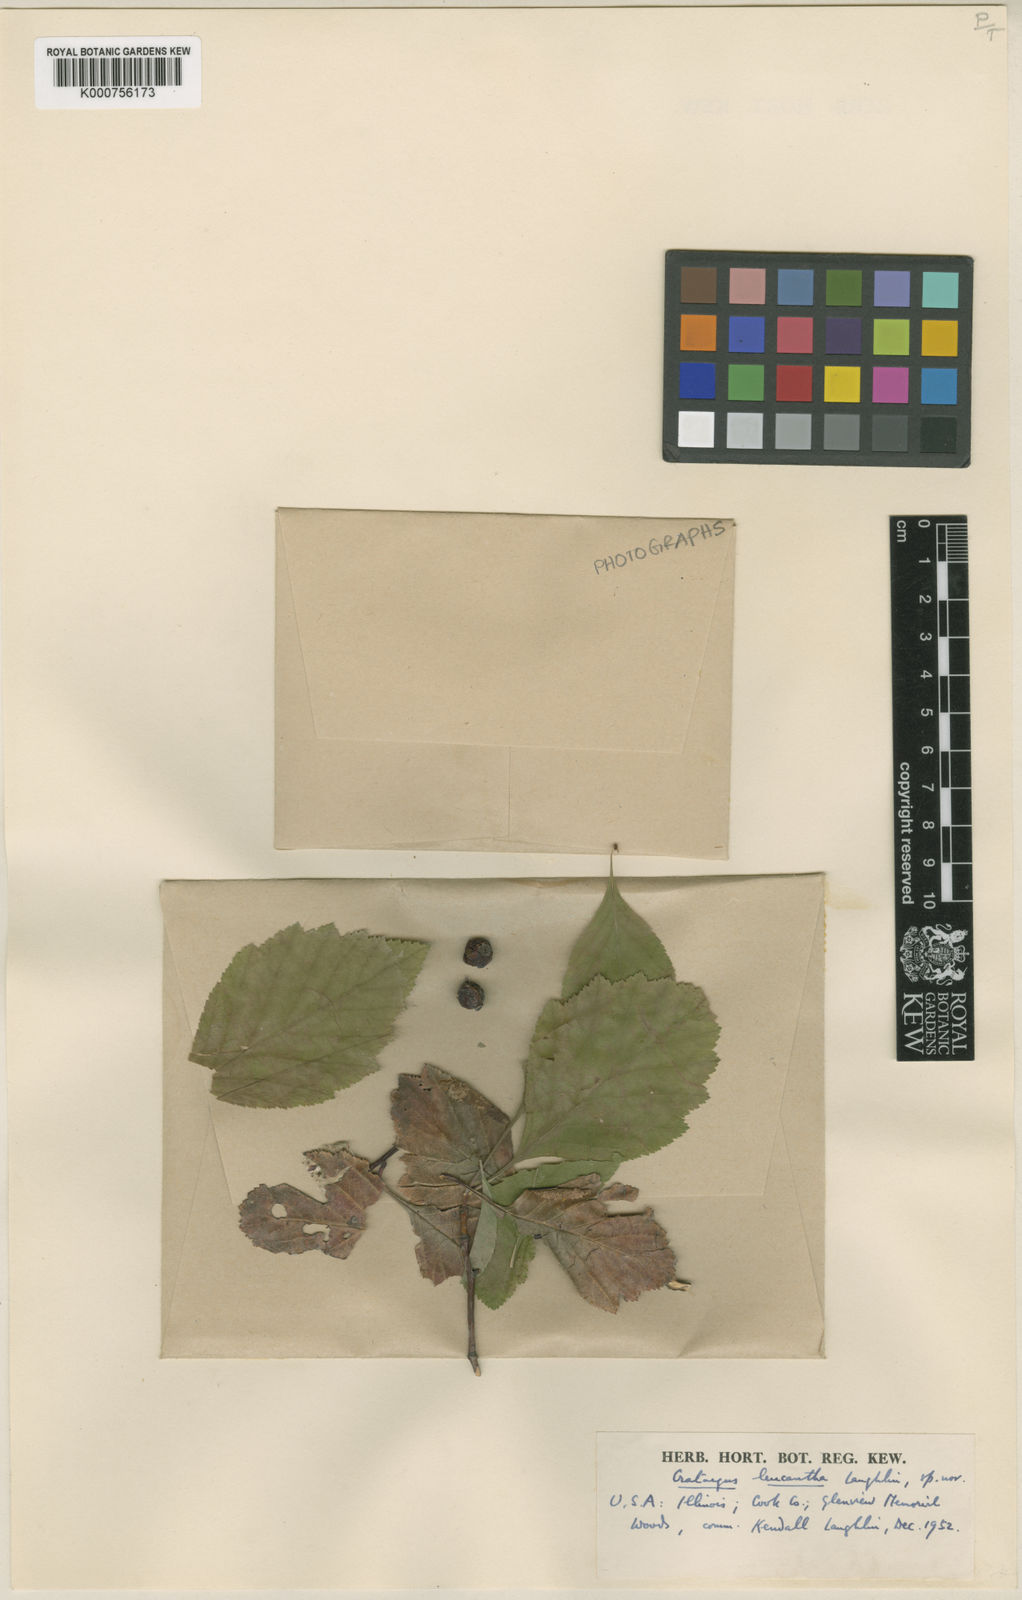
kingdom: Plantae
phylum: Tracheophyta
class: Magnoliopsida
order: Rosales
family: Rosaceae
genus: Crataegus
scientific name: Crataegus succulenta
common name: Fleshy hawthorn
